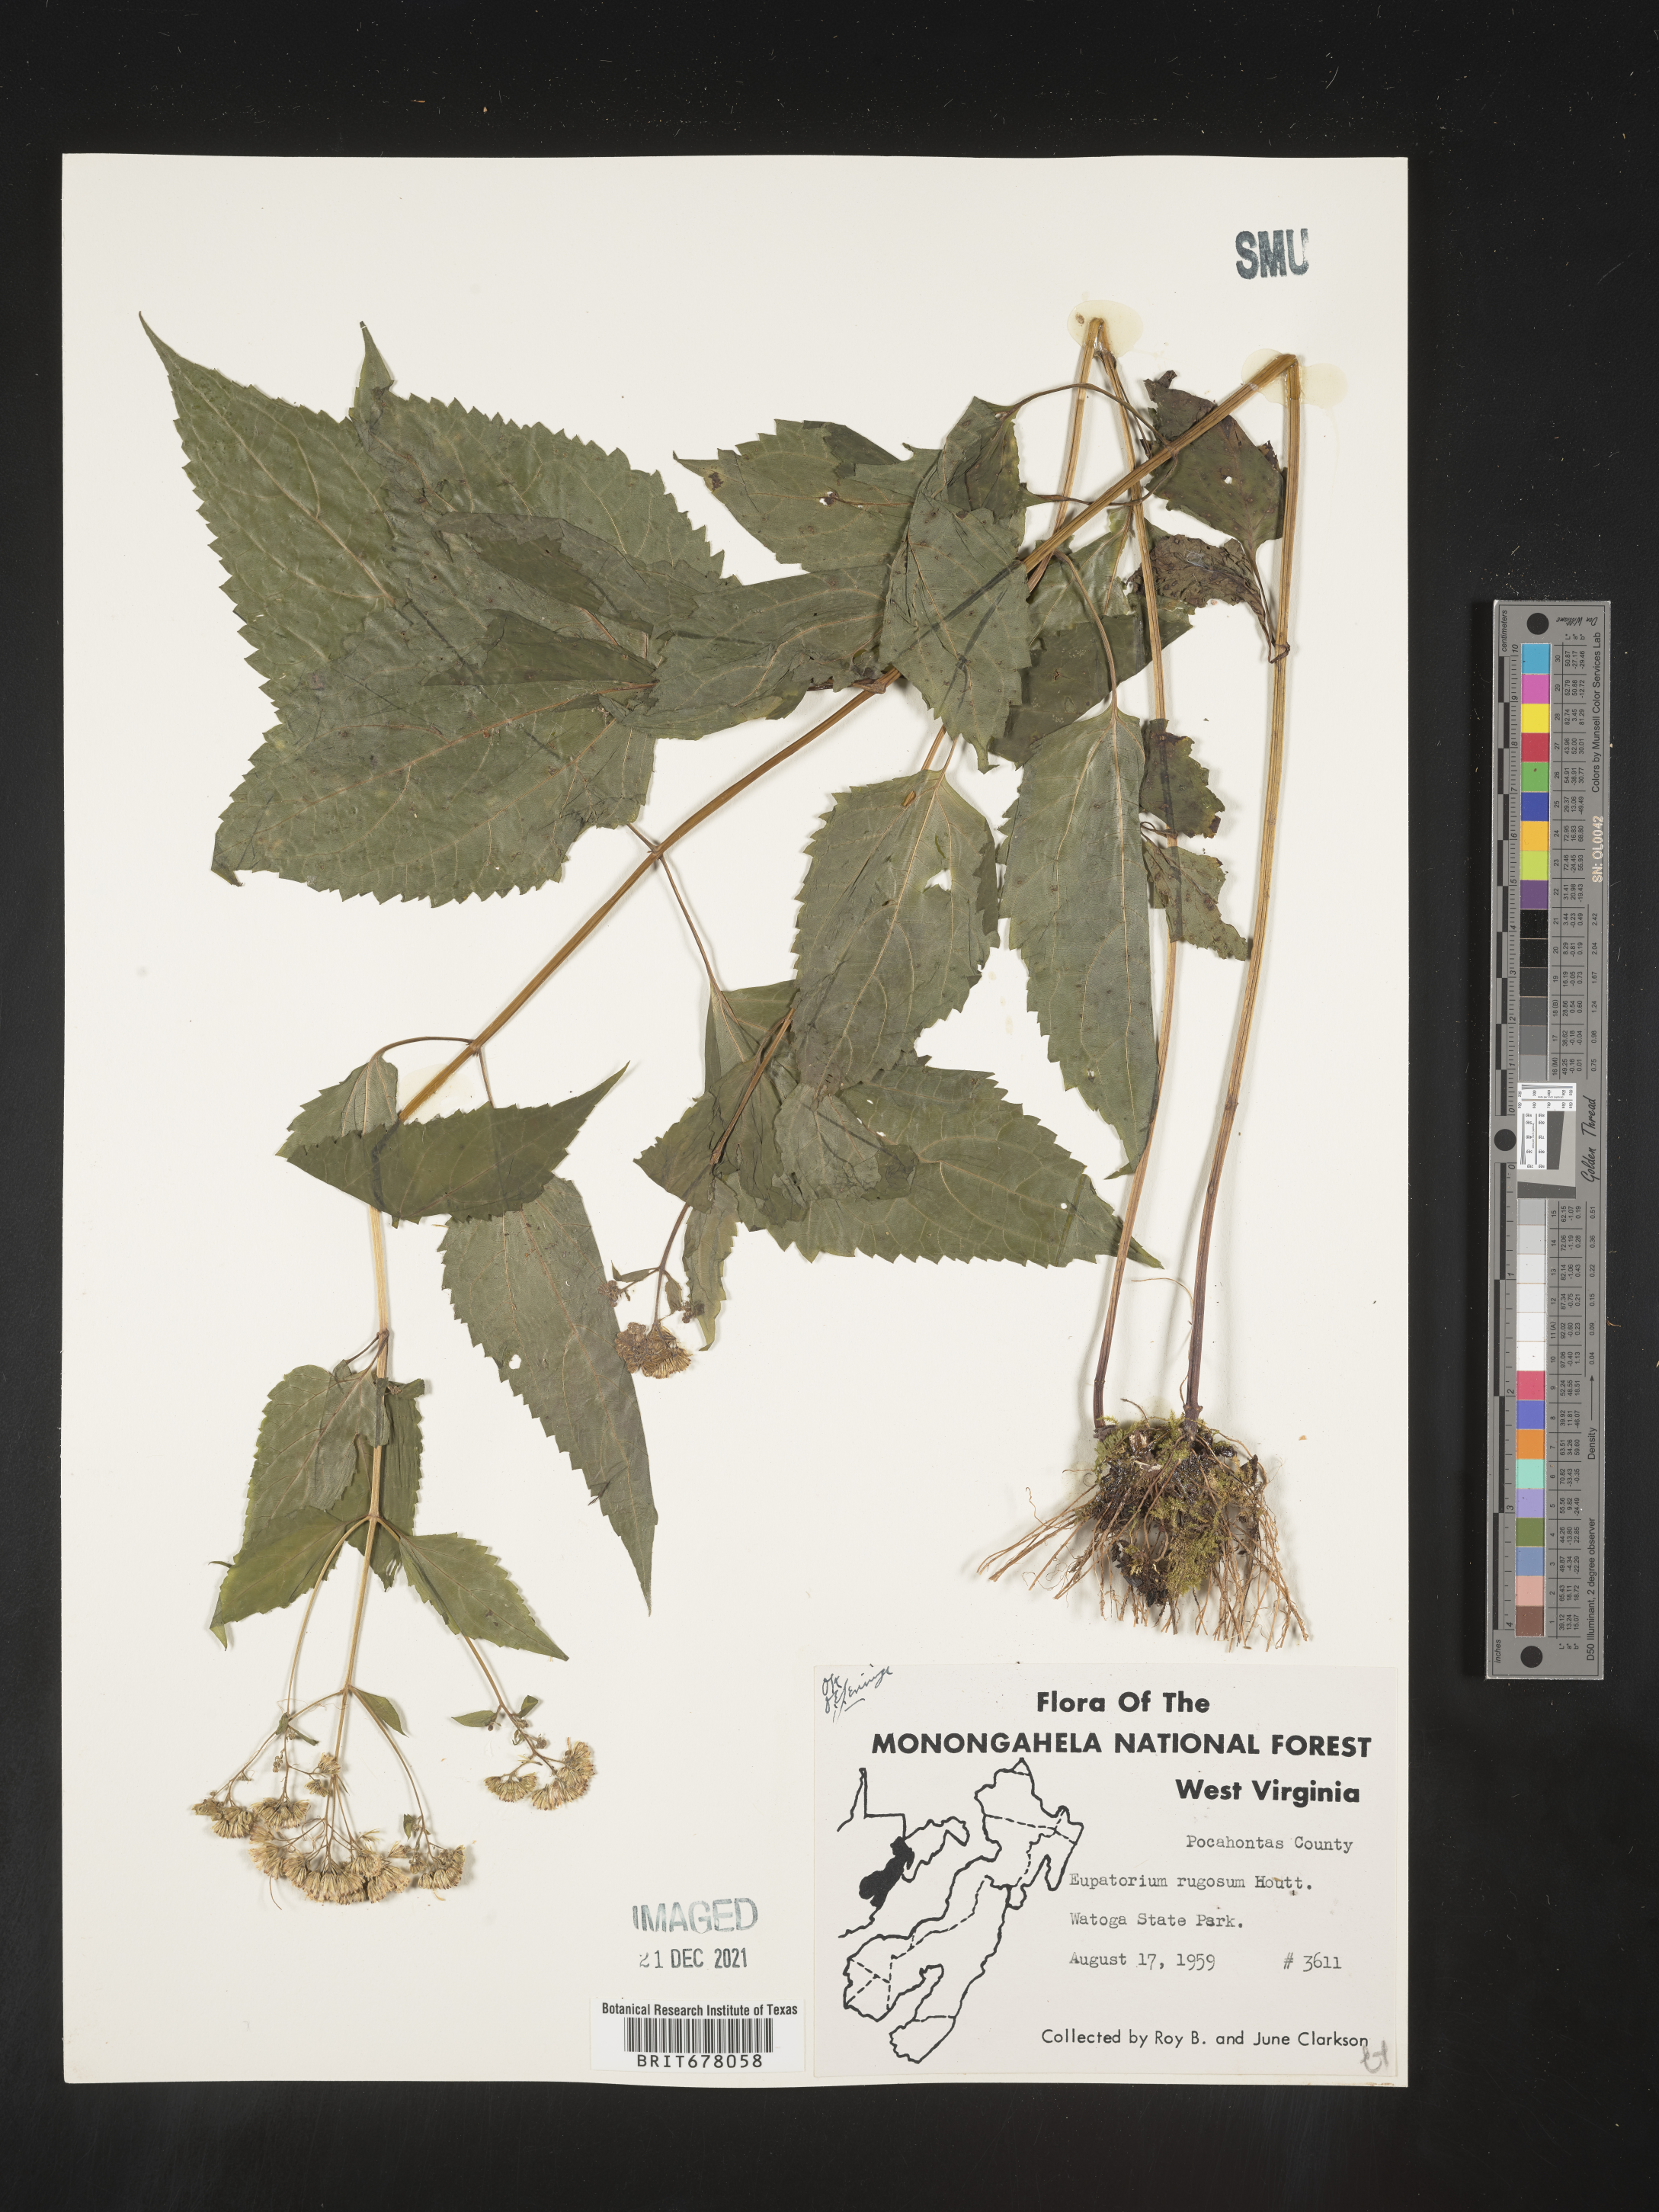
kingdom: Plantae
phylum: Tracheophyta
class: Magnoliopsida
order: Asterales
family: Asteraceae
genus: Eupatorium
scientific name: Eupatorium
